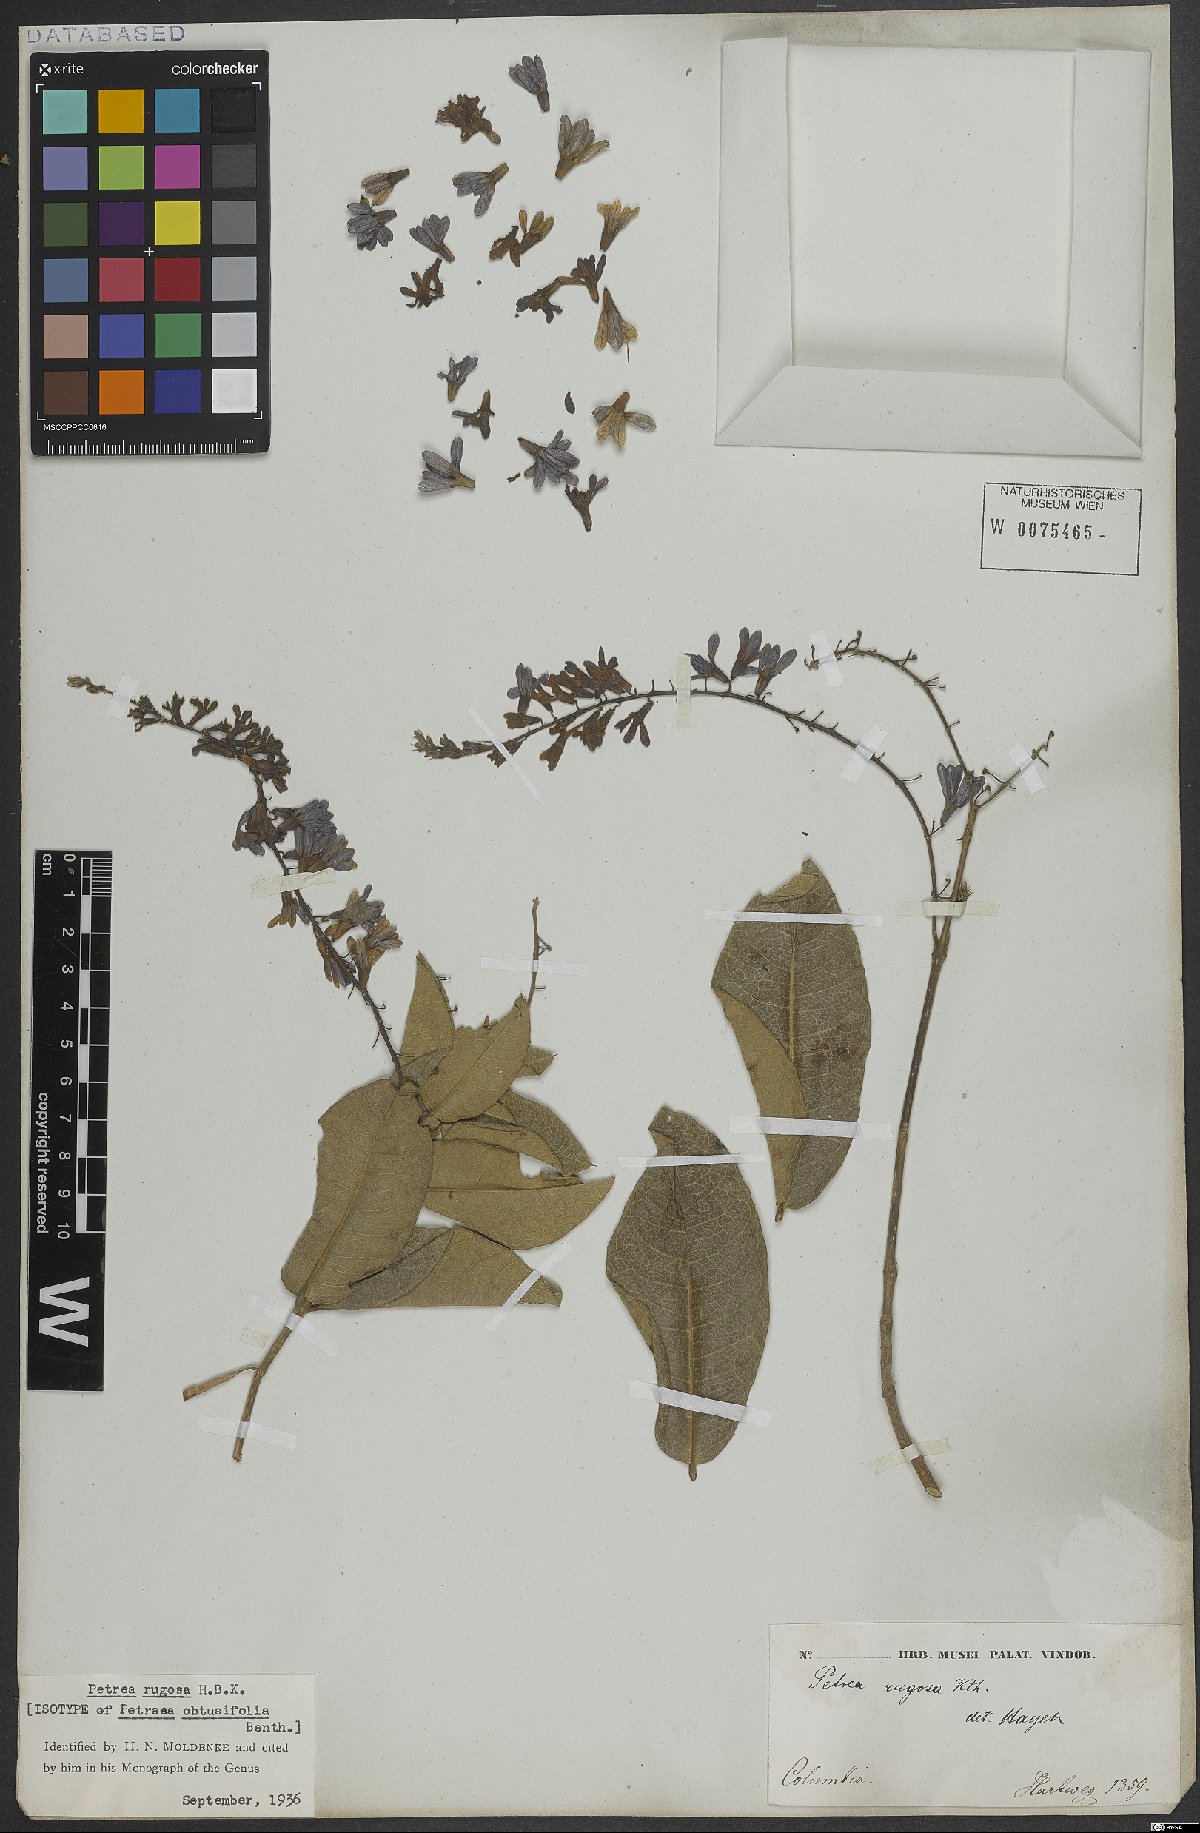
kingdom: Plantae
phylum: Tracheophyta
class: Magnoliopsida
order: Lamiales
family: Verbenaceae
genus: Petrea
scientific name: Petrea rugosa
